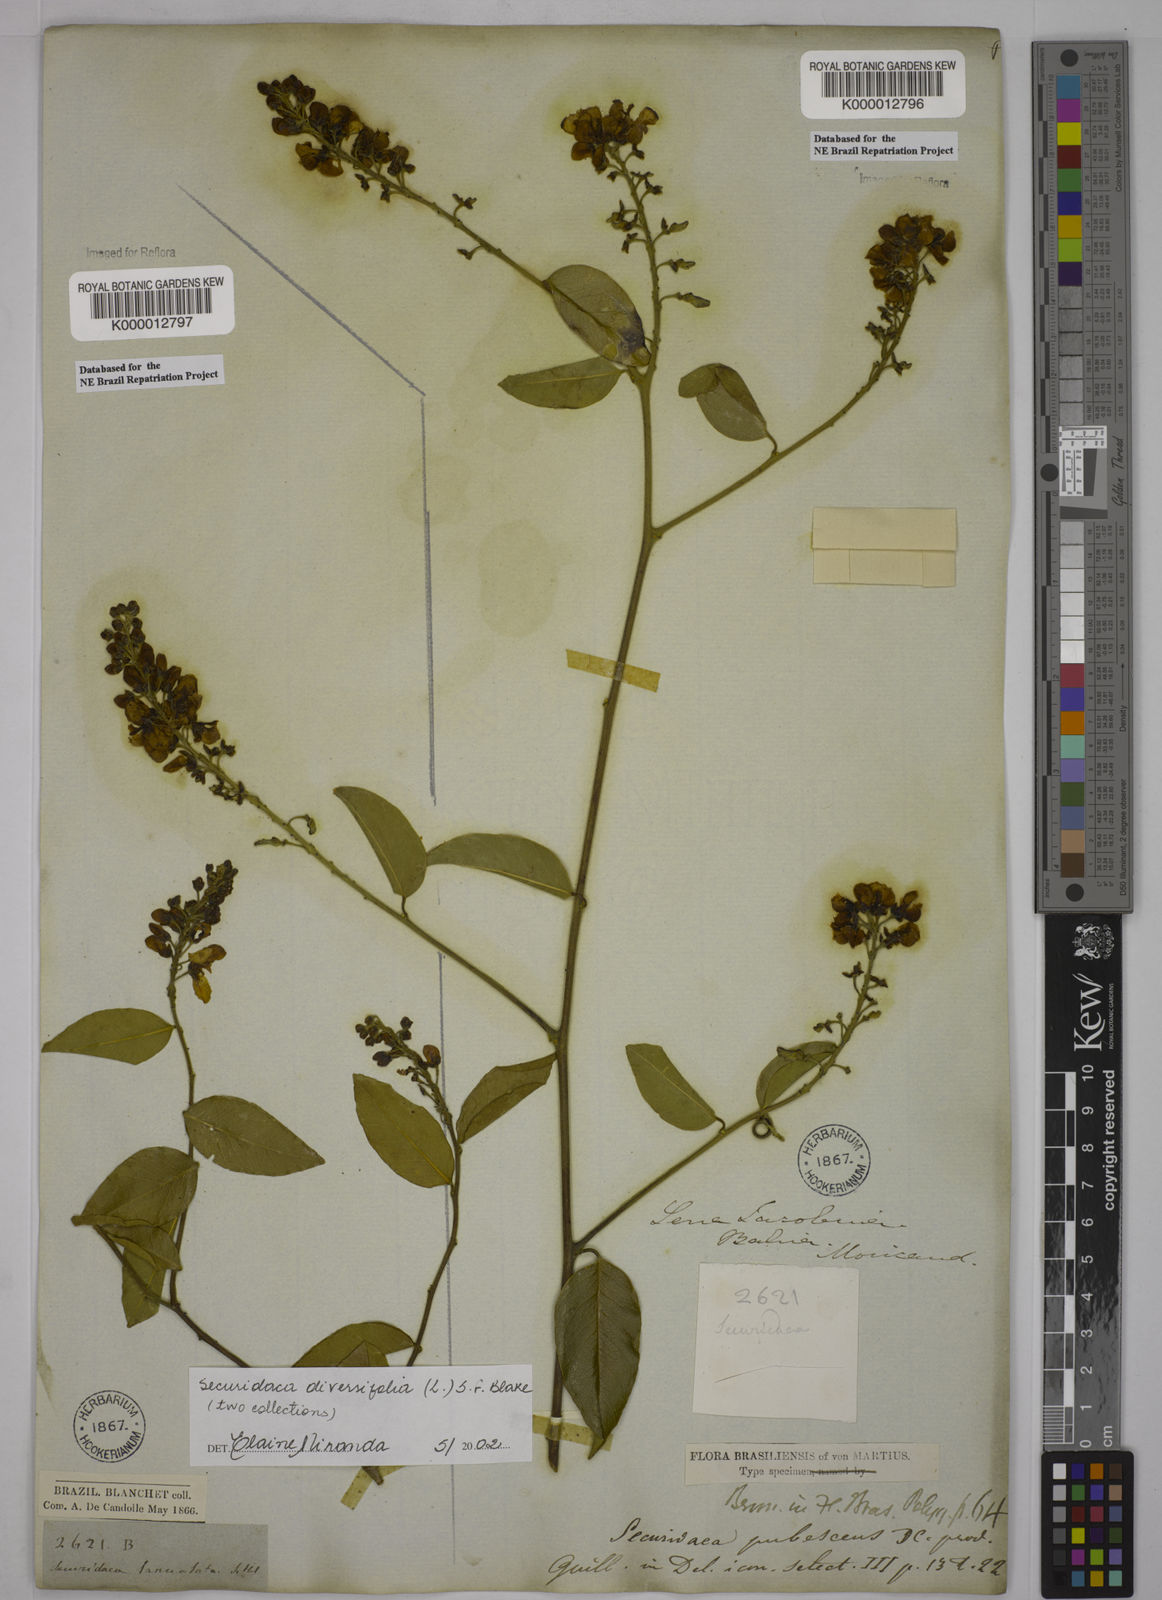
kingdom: Plantae
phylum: Tracheophyta
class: Magnoliopsida
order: Fabales
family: Polygalaceae
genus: Securidaca
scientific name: Securidaca diversifolia
